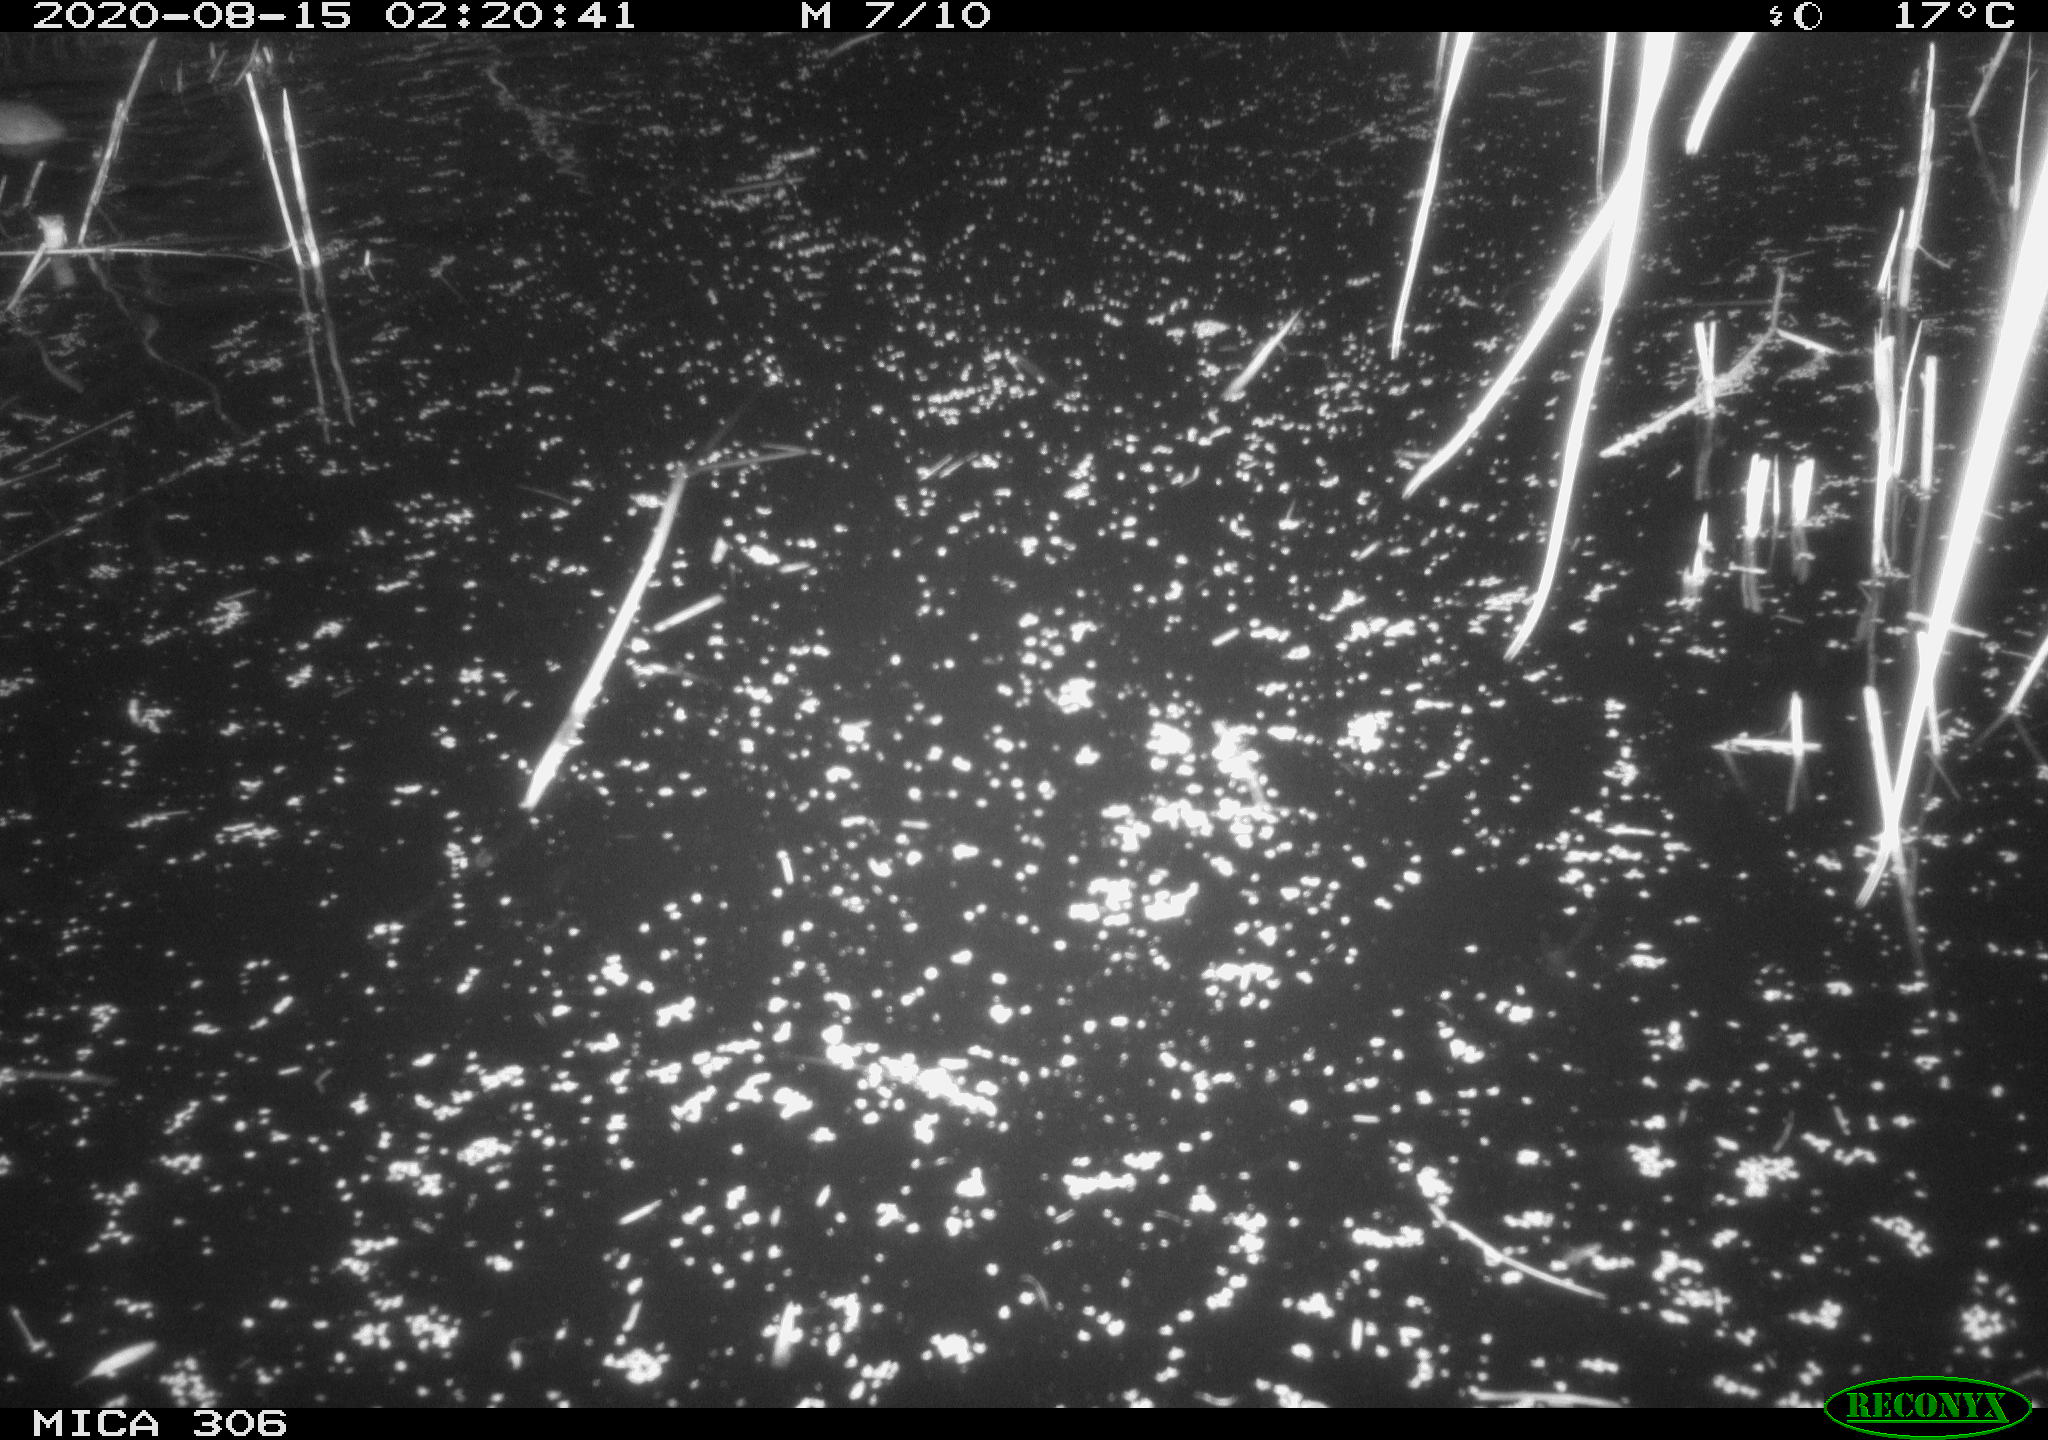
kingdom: Animalia
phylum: Chordata
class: Mammalia
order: Rodentia
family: Muridae
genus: Rattus
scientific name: Rattus norvegicus
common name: Brown rat
